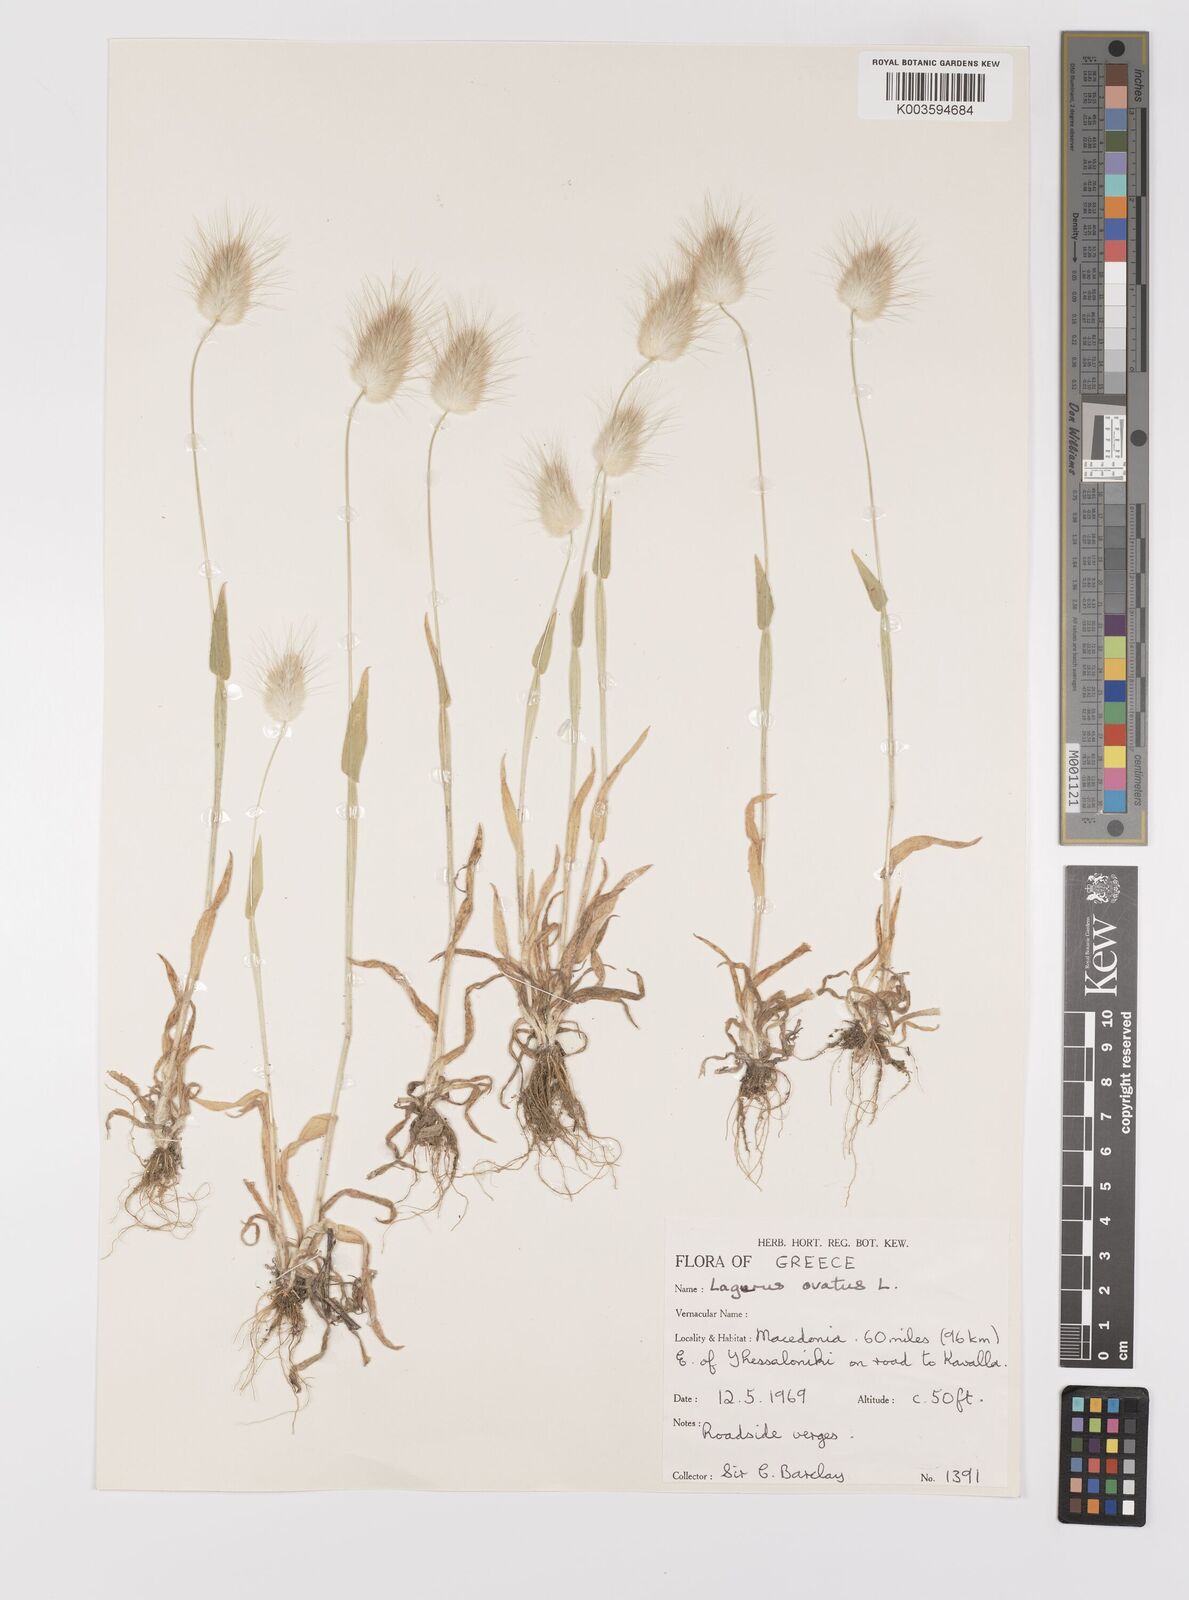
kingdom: Plantae
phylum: Tracheophyta
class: Liliopsida
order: Poales
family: Poaceae
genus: Lagurus
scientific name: Lagurus ovatus
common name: Hare's-tail
